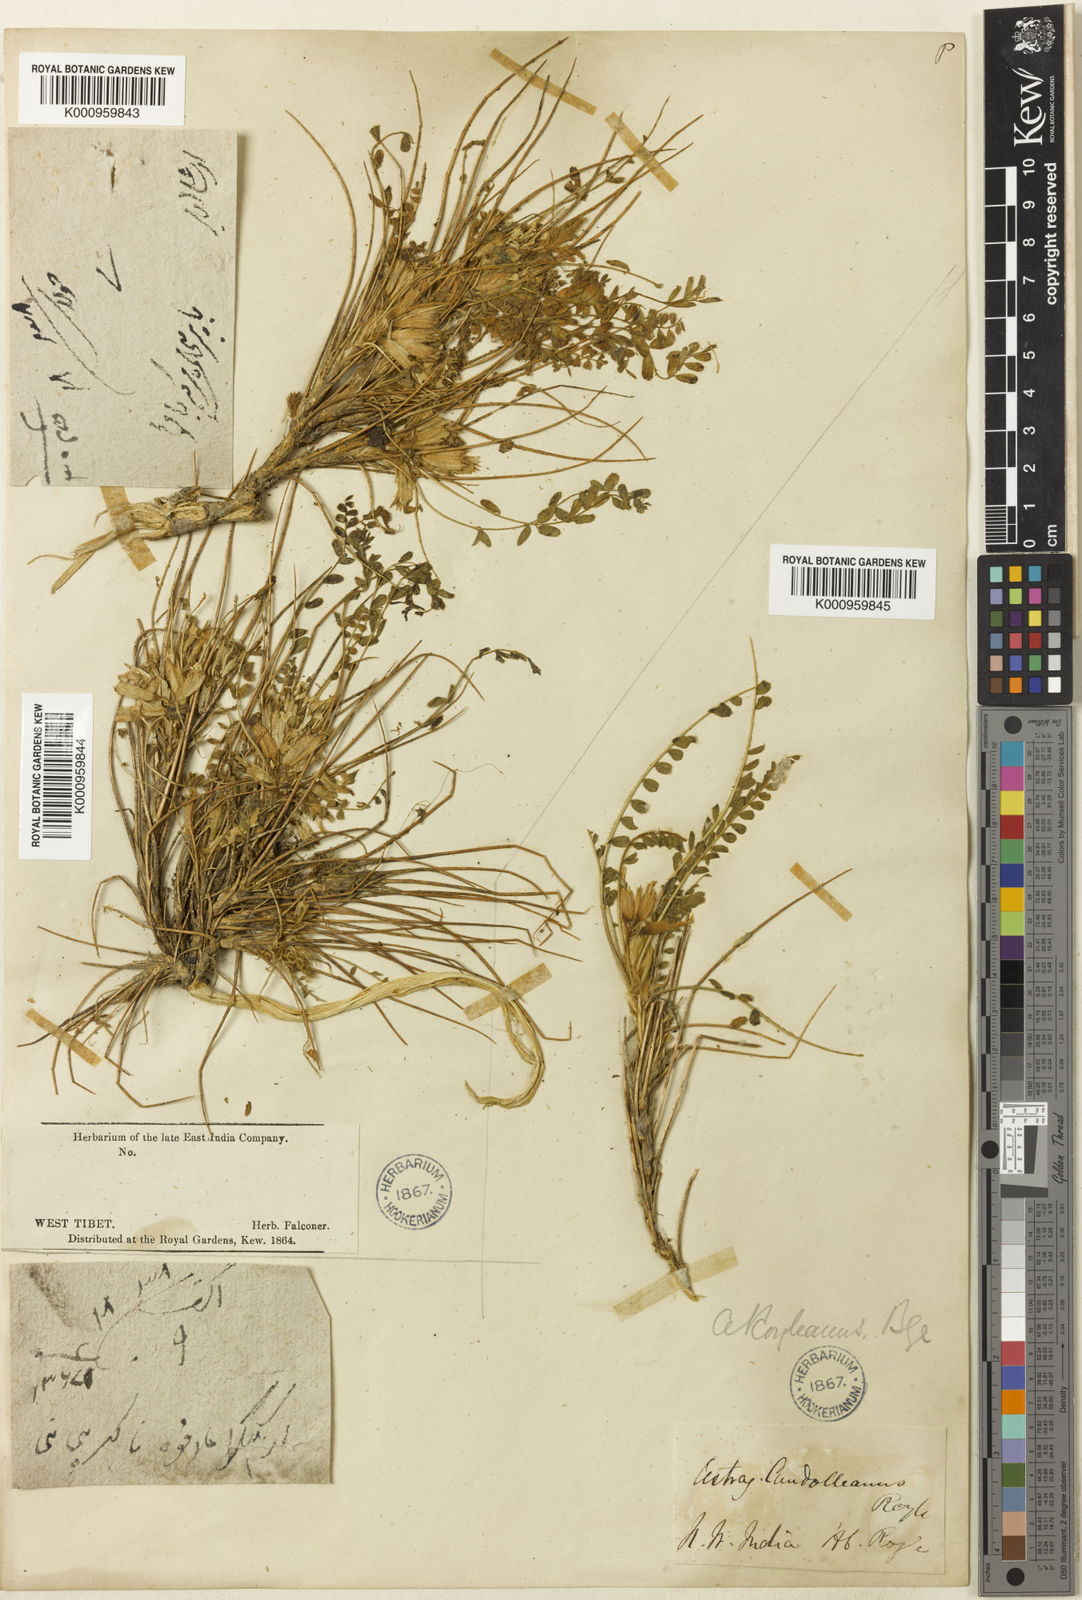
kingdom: Plantae
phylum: Tracheophyta
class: Magnoliopsida
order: Fabales
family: Fabaceae
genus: Astragalus
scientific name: Astragalus rhizanthus
